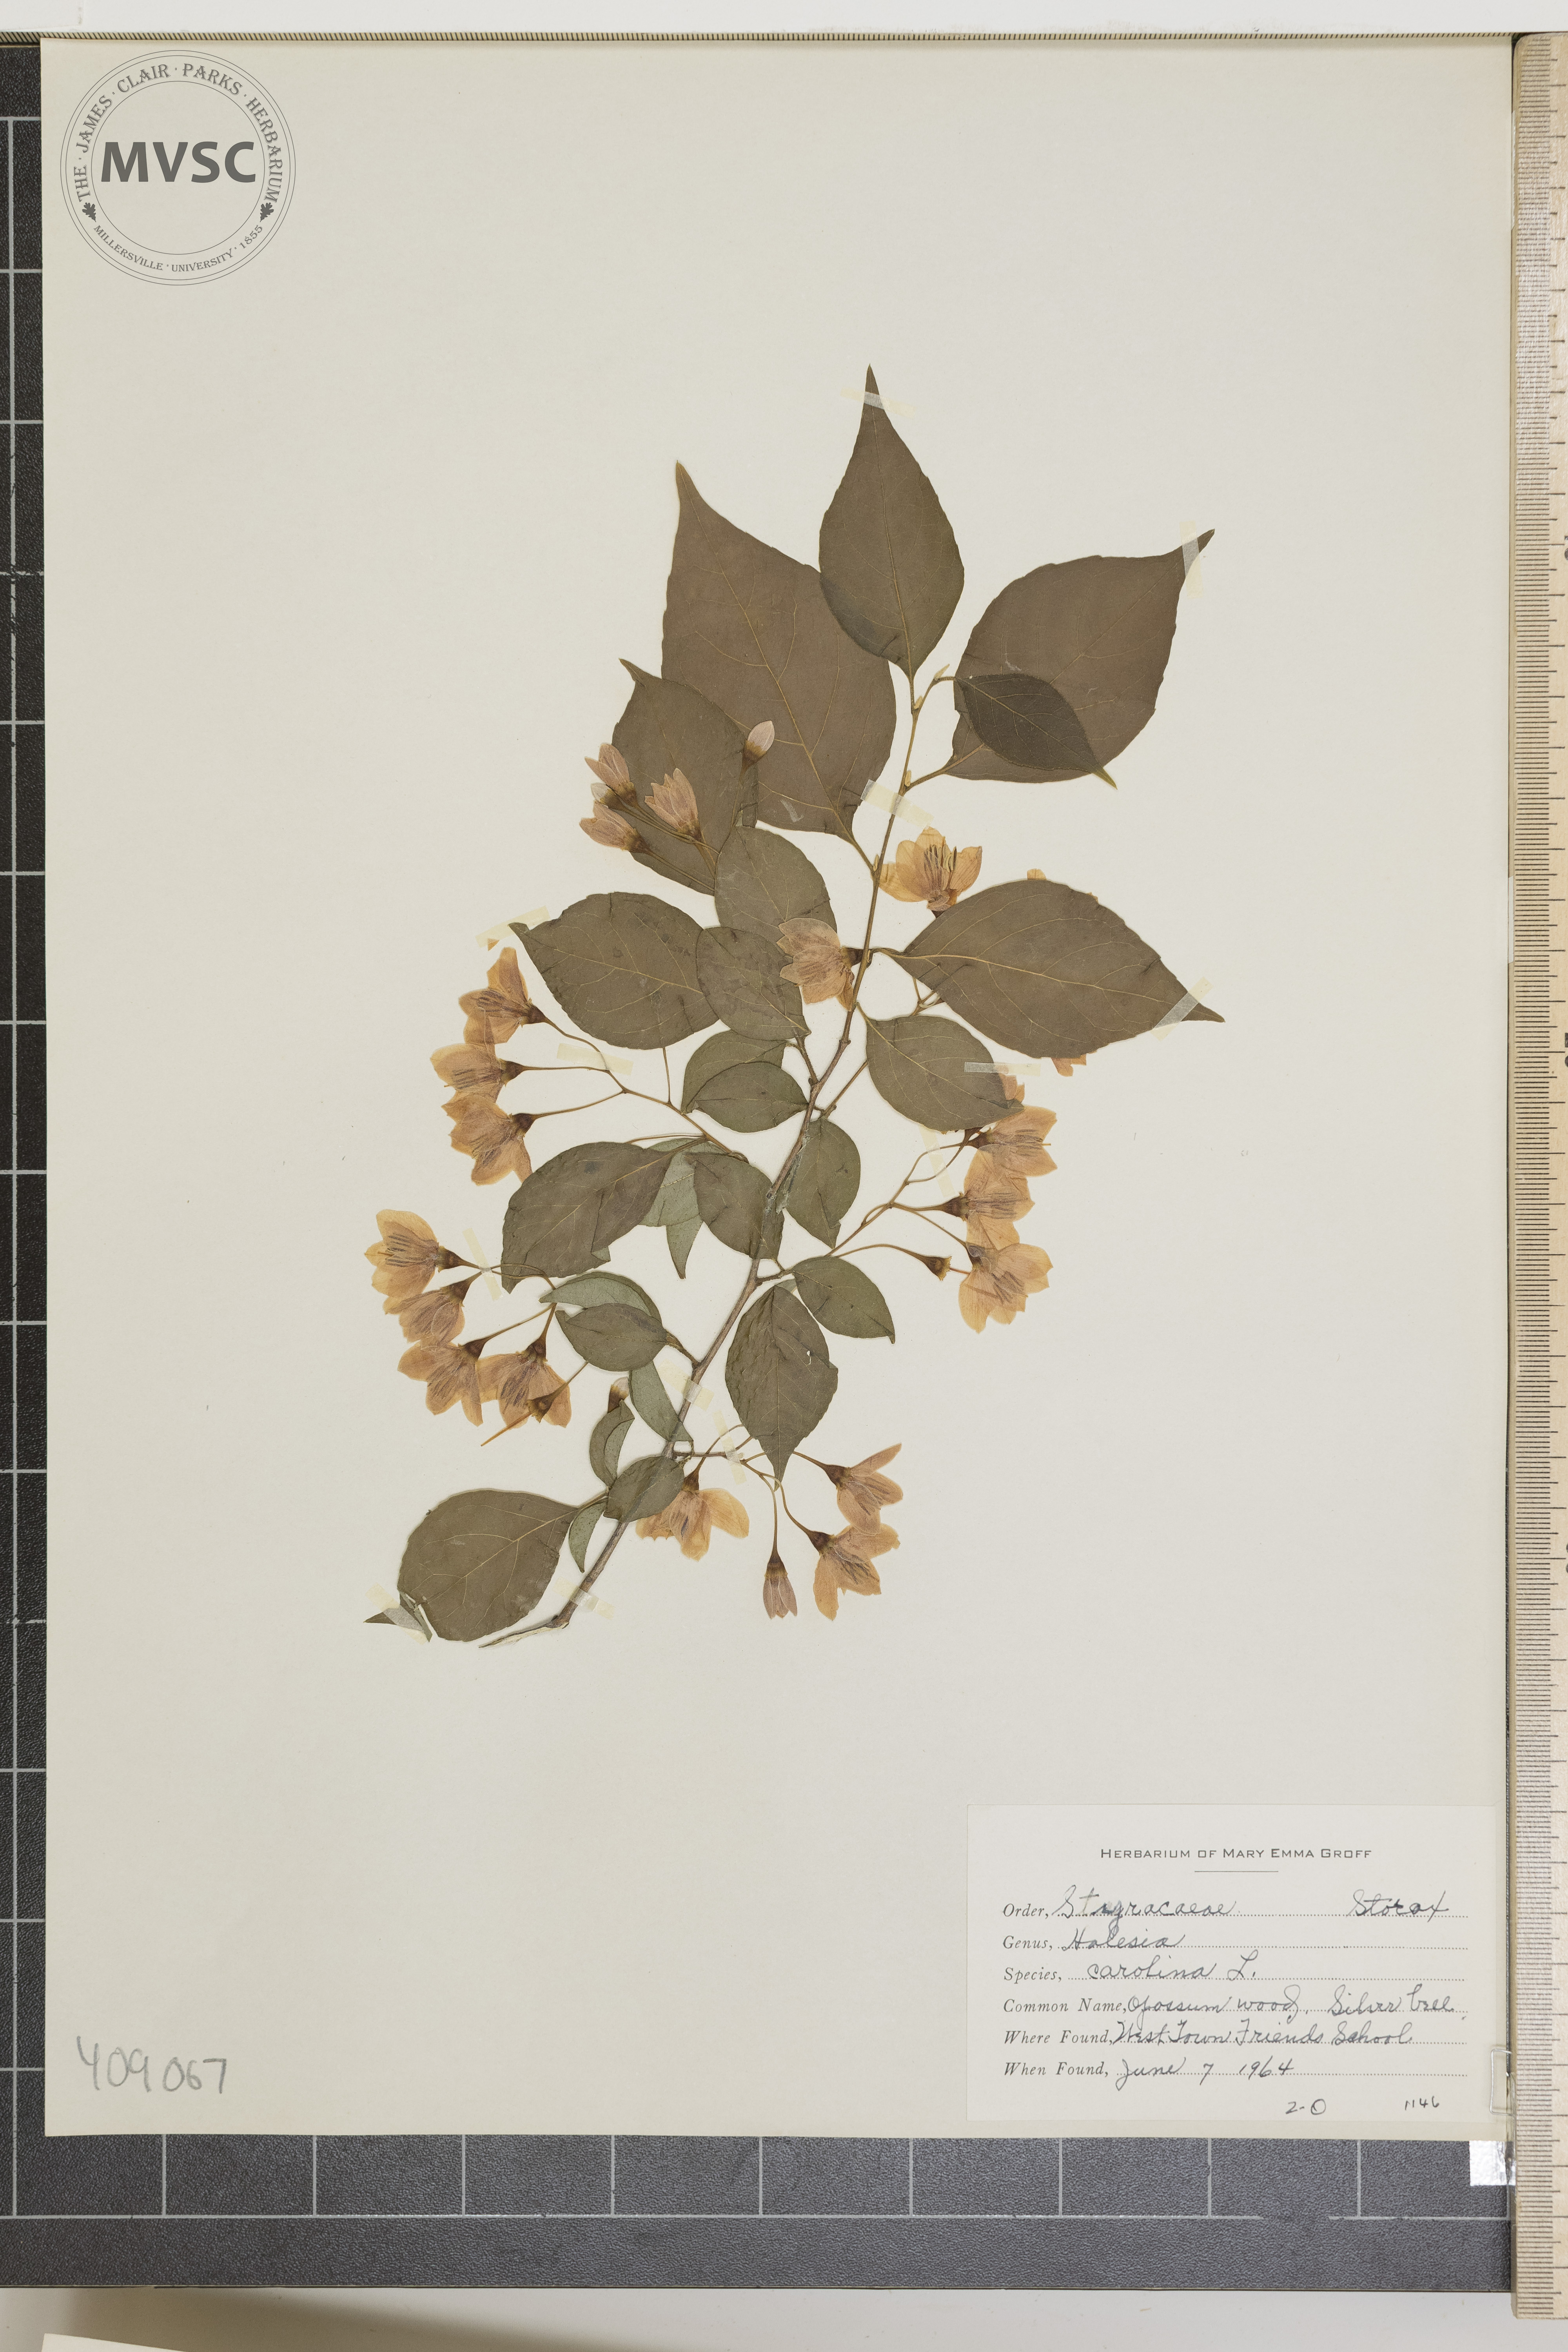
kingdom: Plantae
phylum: Tracheophyta
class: Magnoliopsida
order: Ericales
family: Styracaceae
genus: Halesia
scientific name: Halesia carolina
